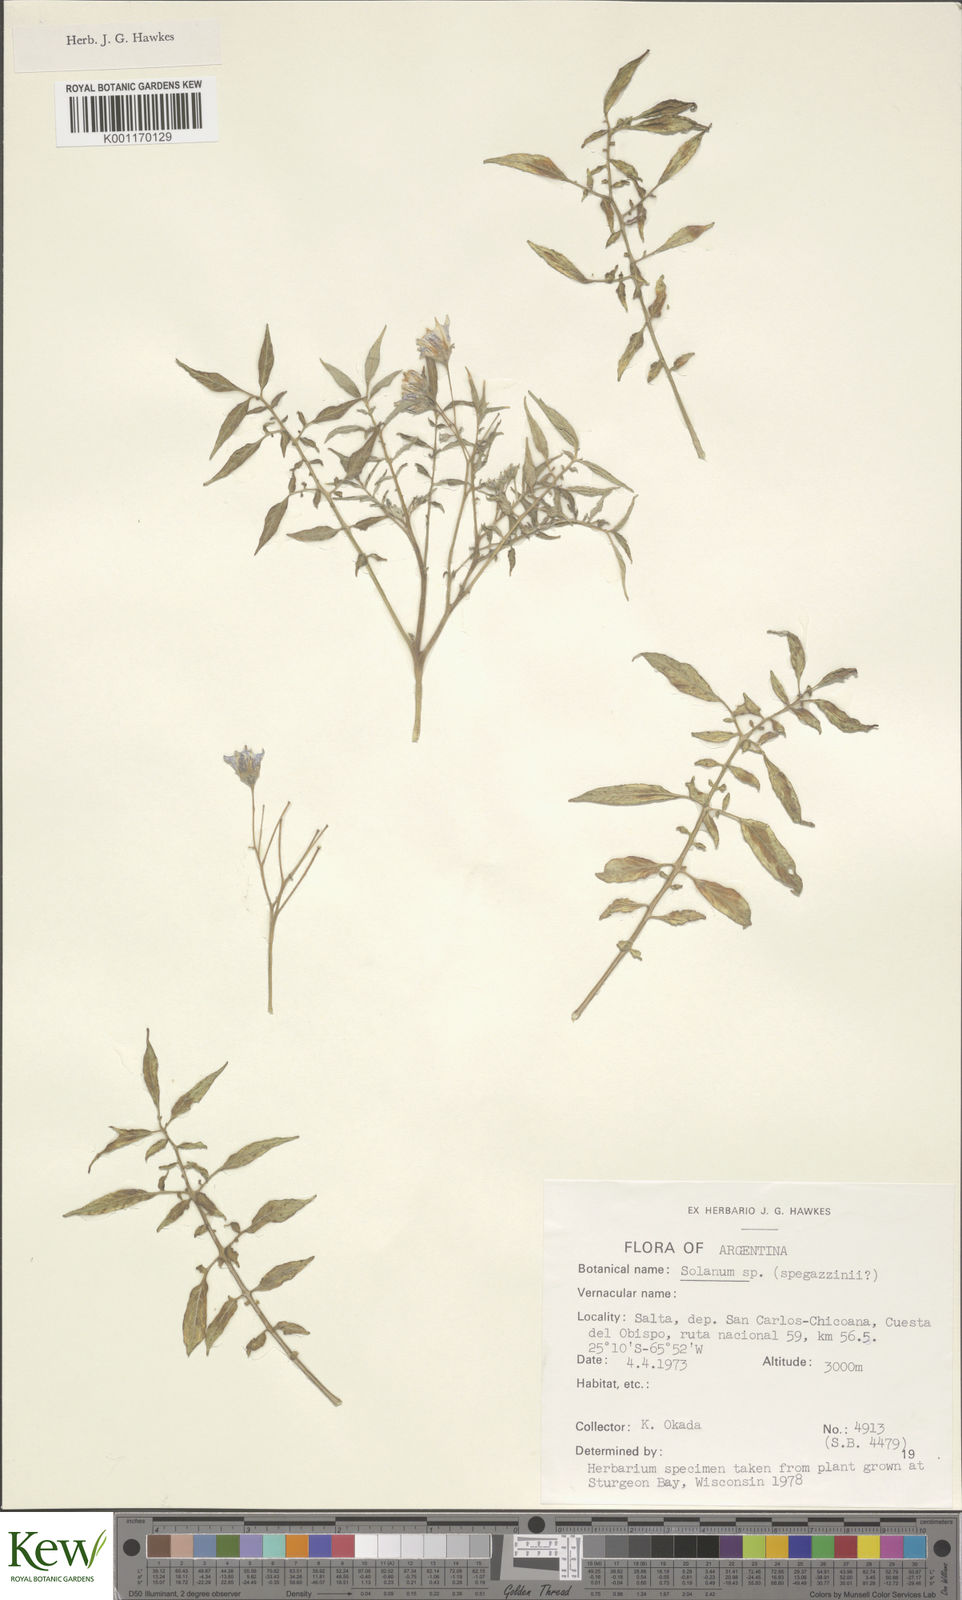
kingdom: Plantae
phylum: Tracheophyta
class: Magnoliopsida
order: Solanales
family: Solanaceae
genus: Solanum
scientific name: Solanum brevicaule
